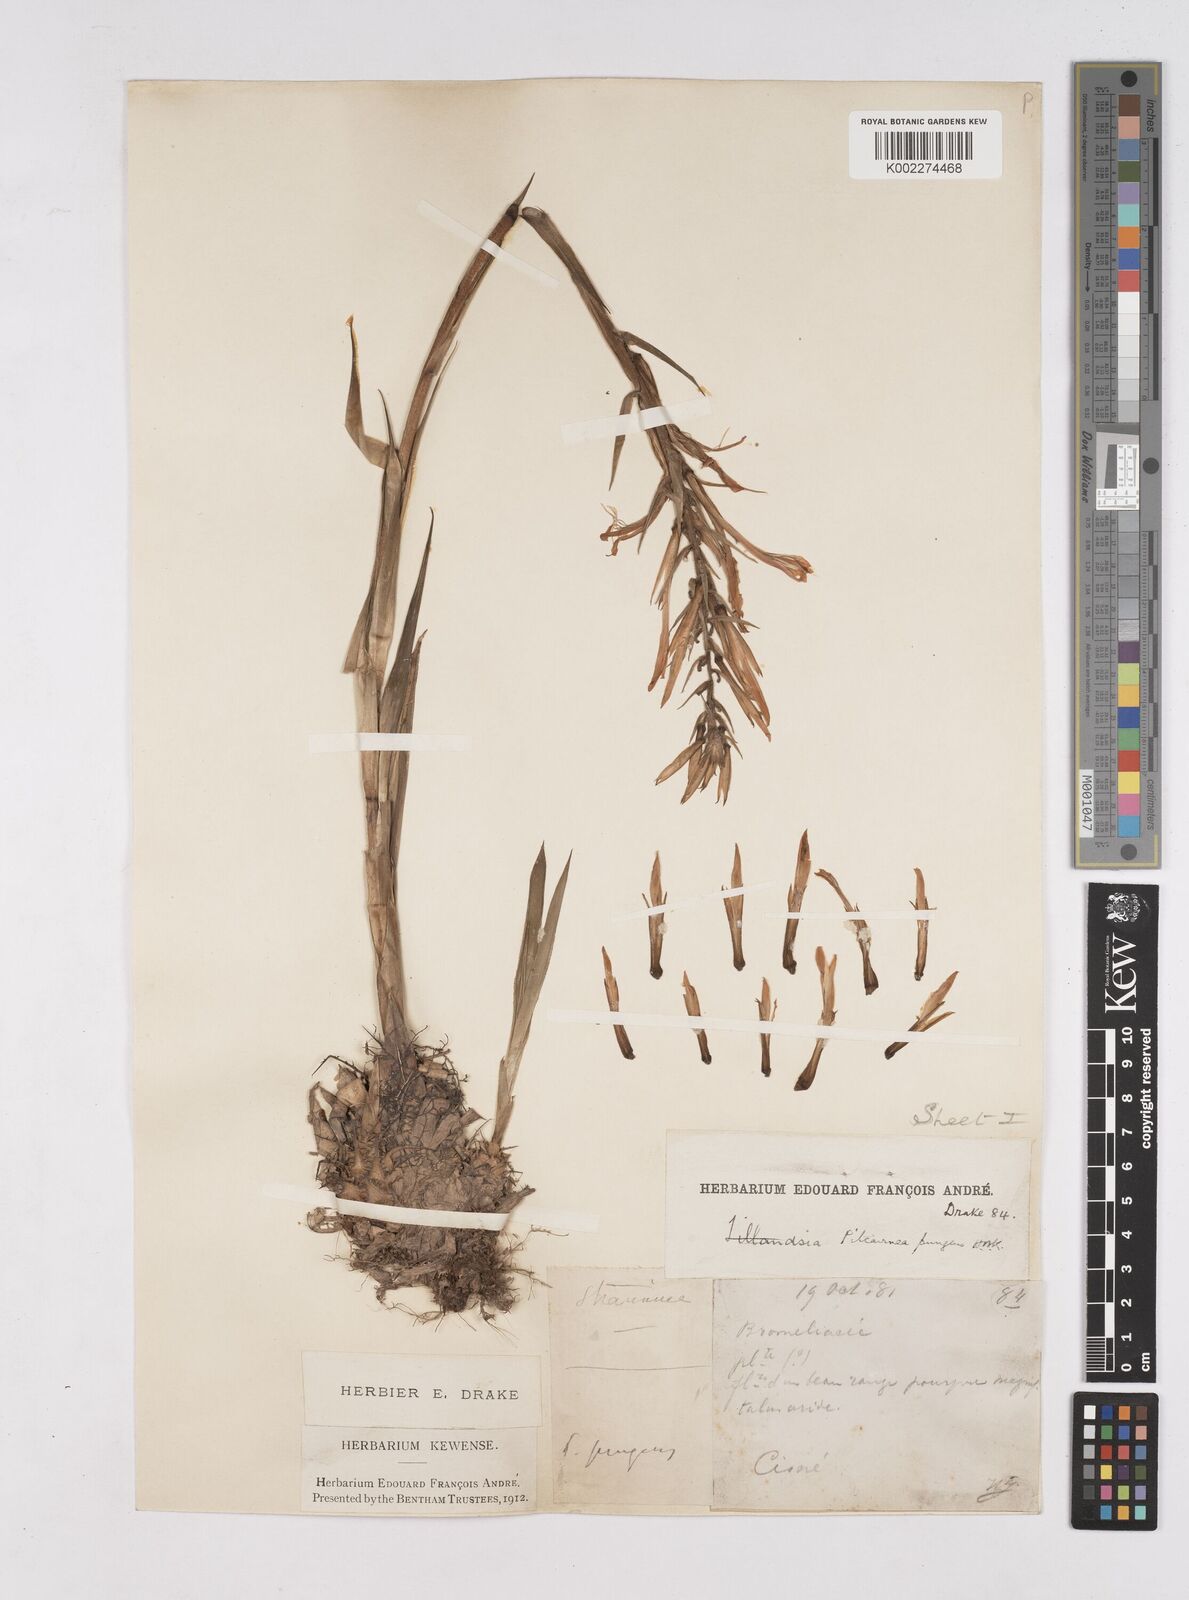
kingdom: Plantae
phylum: Tracheophyta
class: Liliopsida
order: Poales
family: Bromeliaceae
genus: Pitcairnia
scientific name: Pitcairnia pungens
